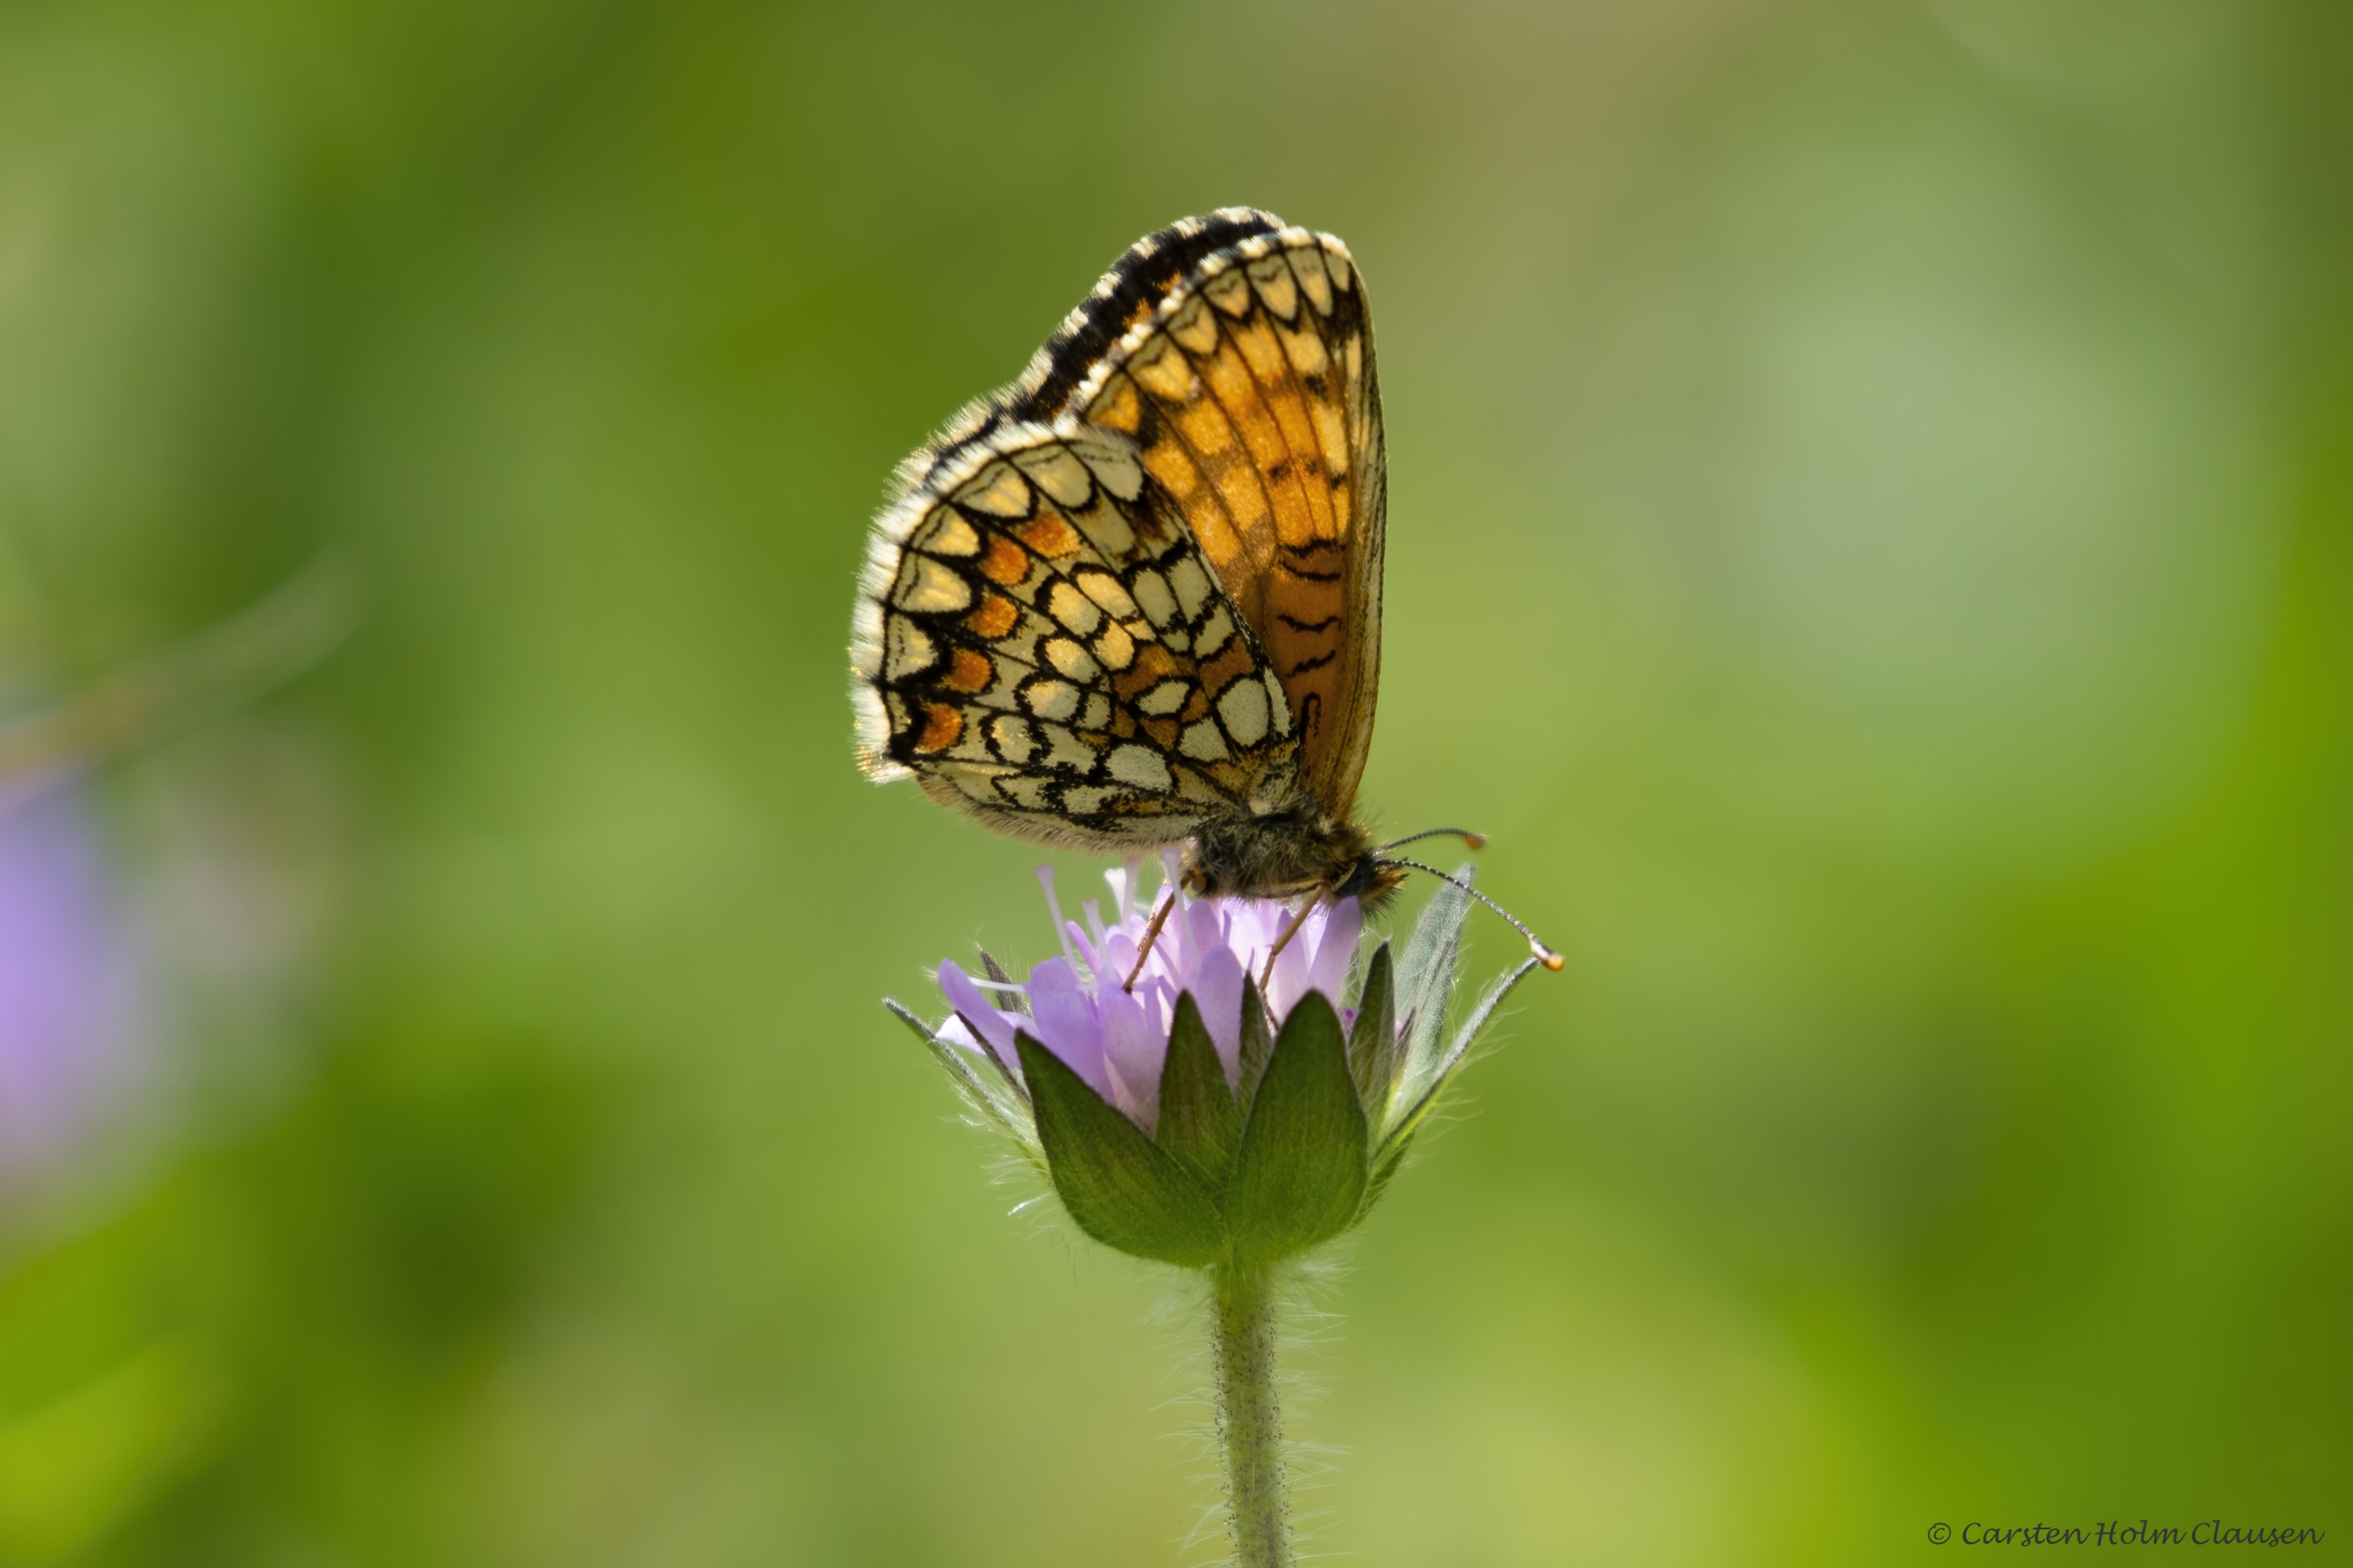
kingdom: Animalia
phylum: Arthropoda
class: Insecta
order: Lepidoptera
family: Nymphalidae
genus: Mellicta
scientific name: Mellicta athalia
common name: Brun pletvinge
